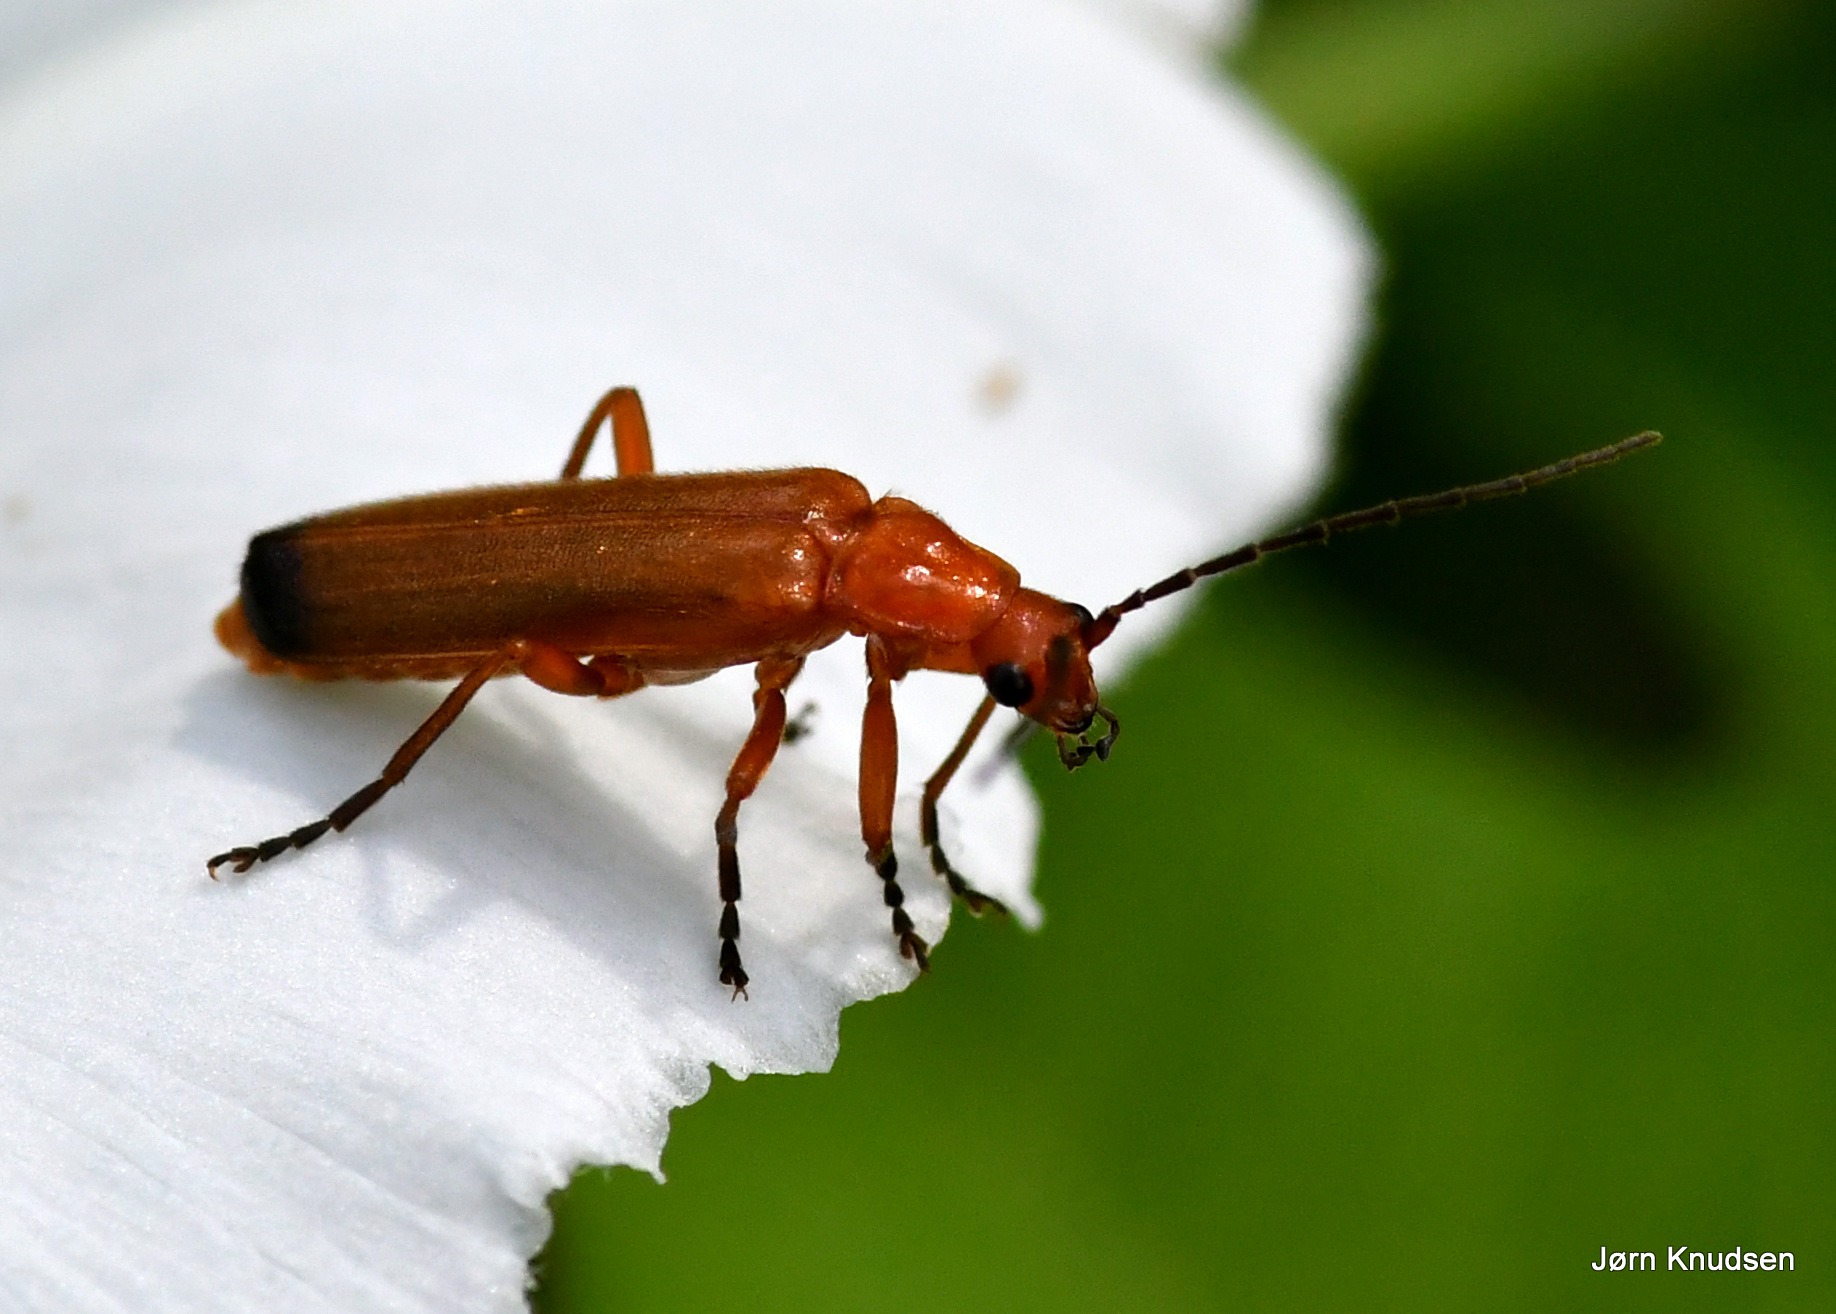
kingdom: Animalia
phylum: Arthropoda
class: Insecta
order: Coleoptera
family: Cantharidae
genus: Rhagonycha
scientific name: Rhagonycha fulva
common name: Præstebille
